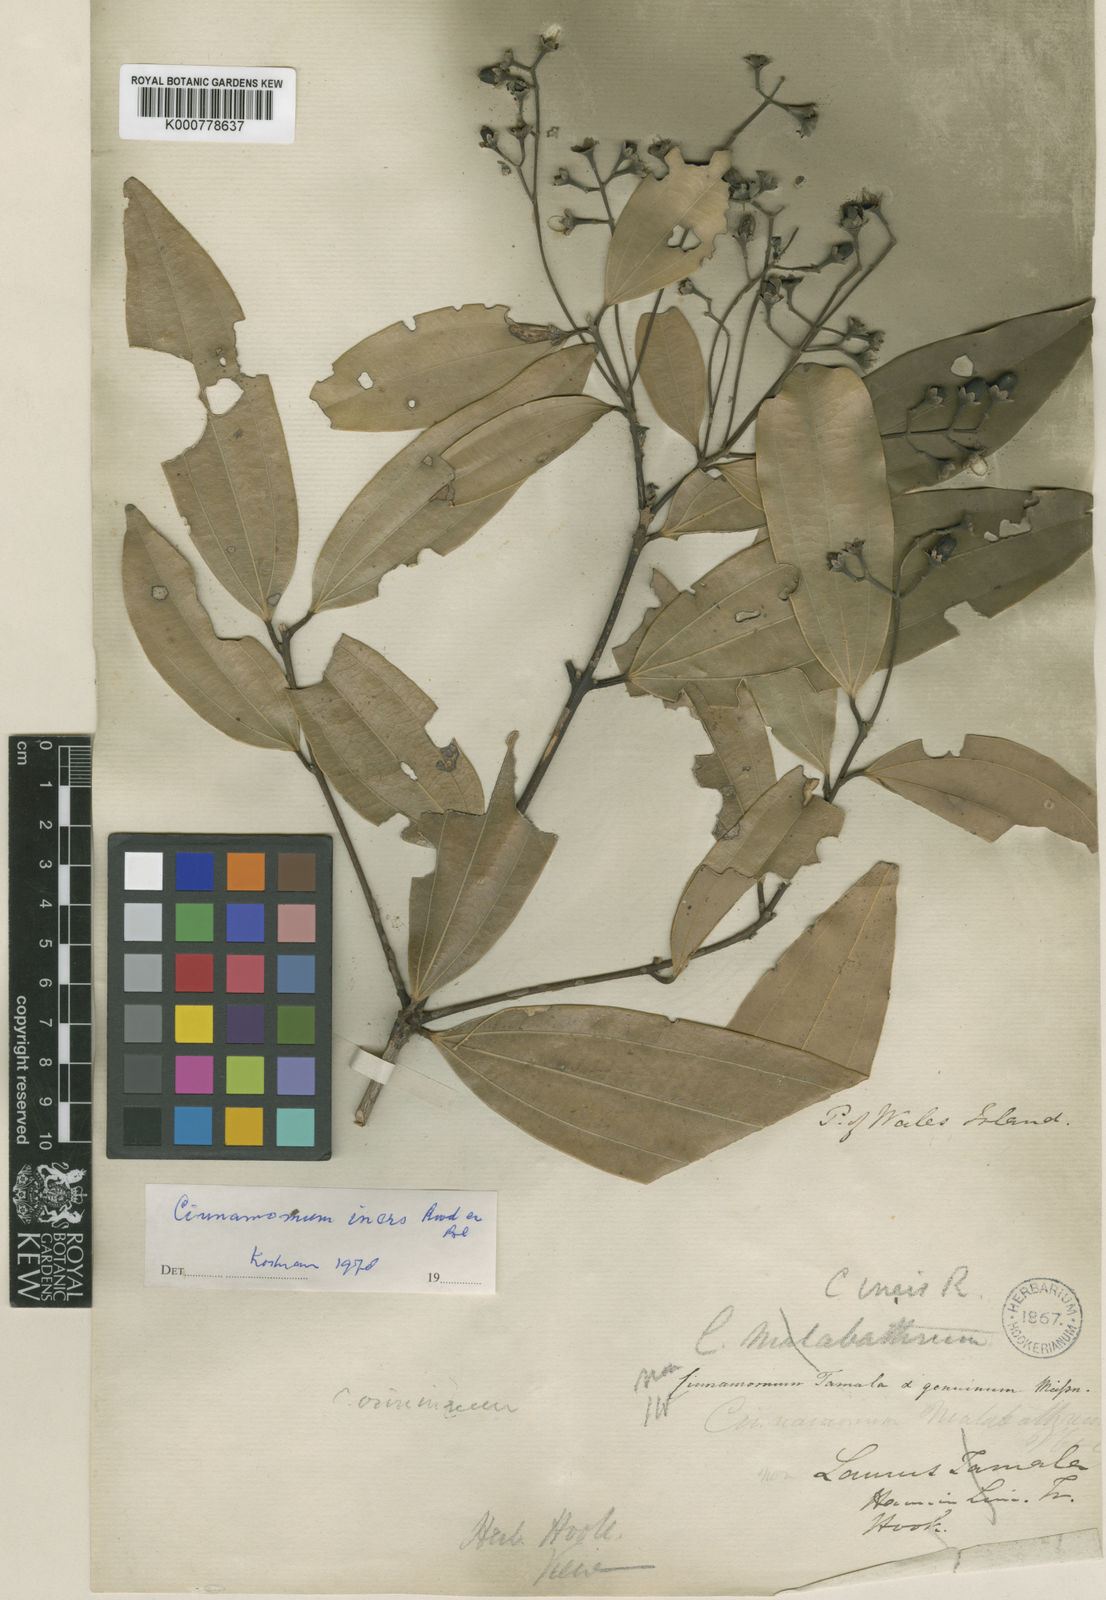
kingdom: Plantae
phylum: Tracheophyta
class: Magnoliopsida
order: Laurales
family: Lauraceae
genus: Cinnamomum
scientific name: Cinnamomum iners
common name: Wild cinnamon
